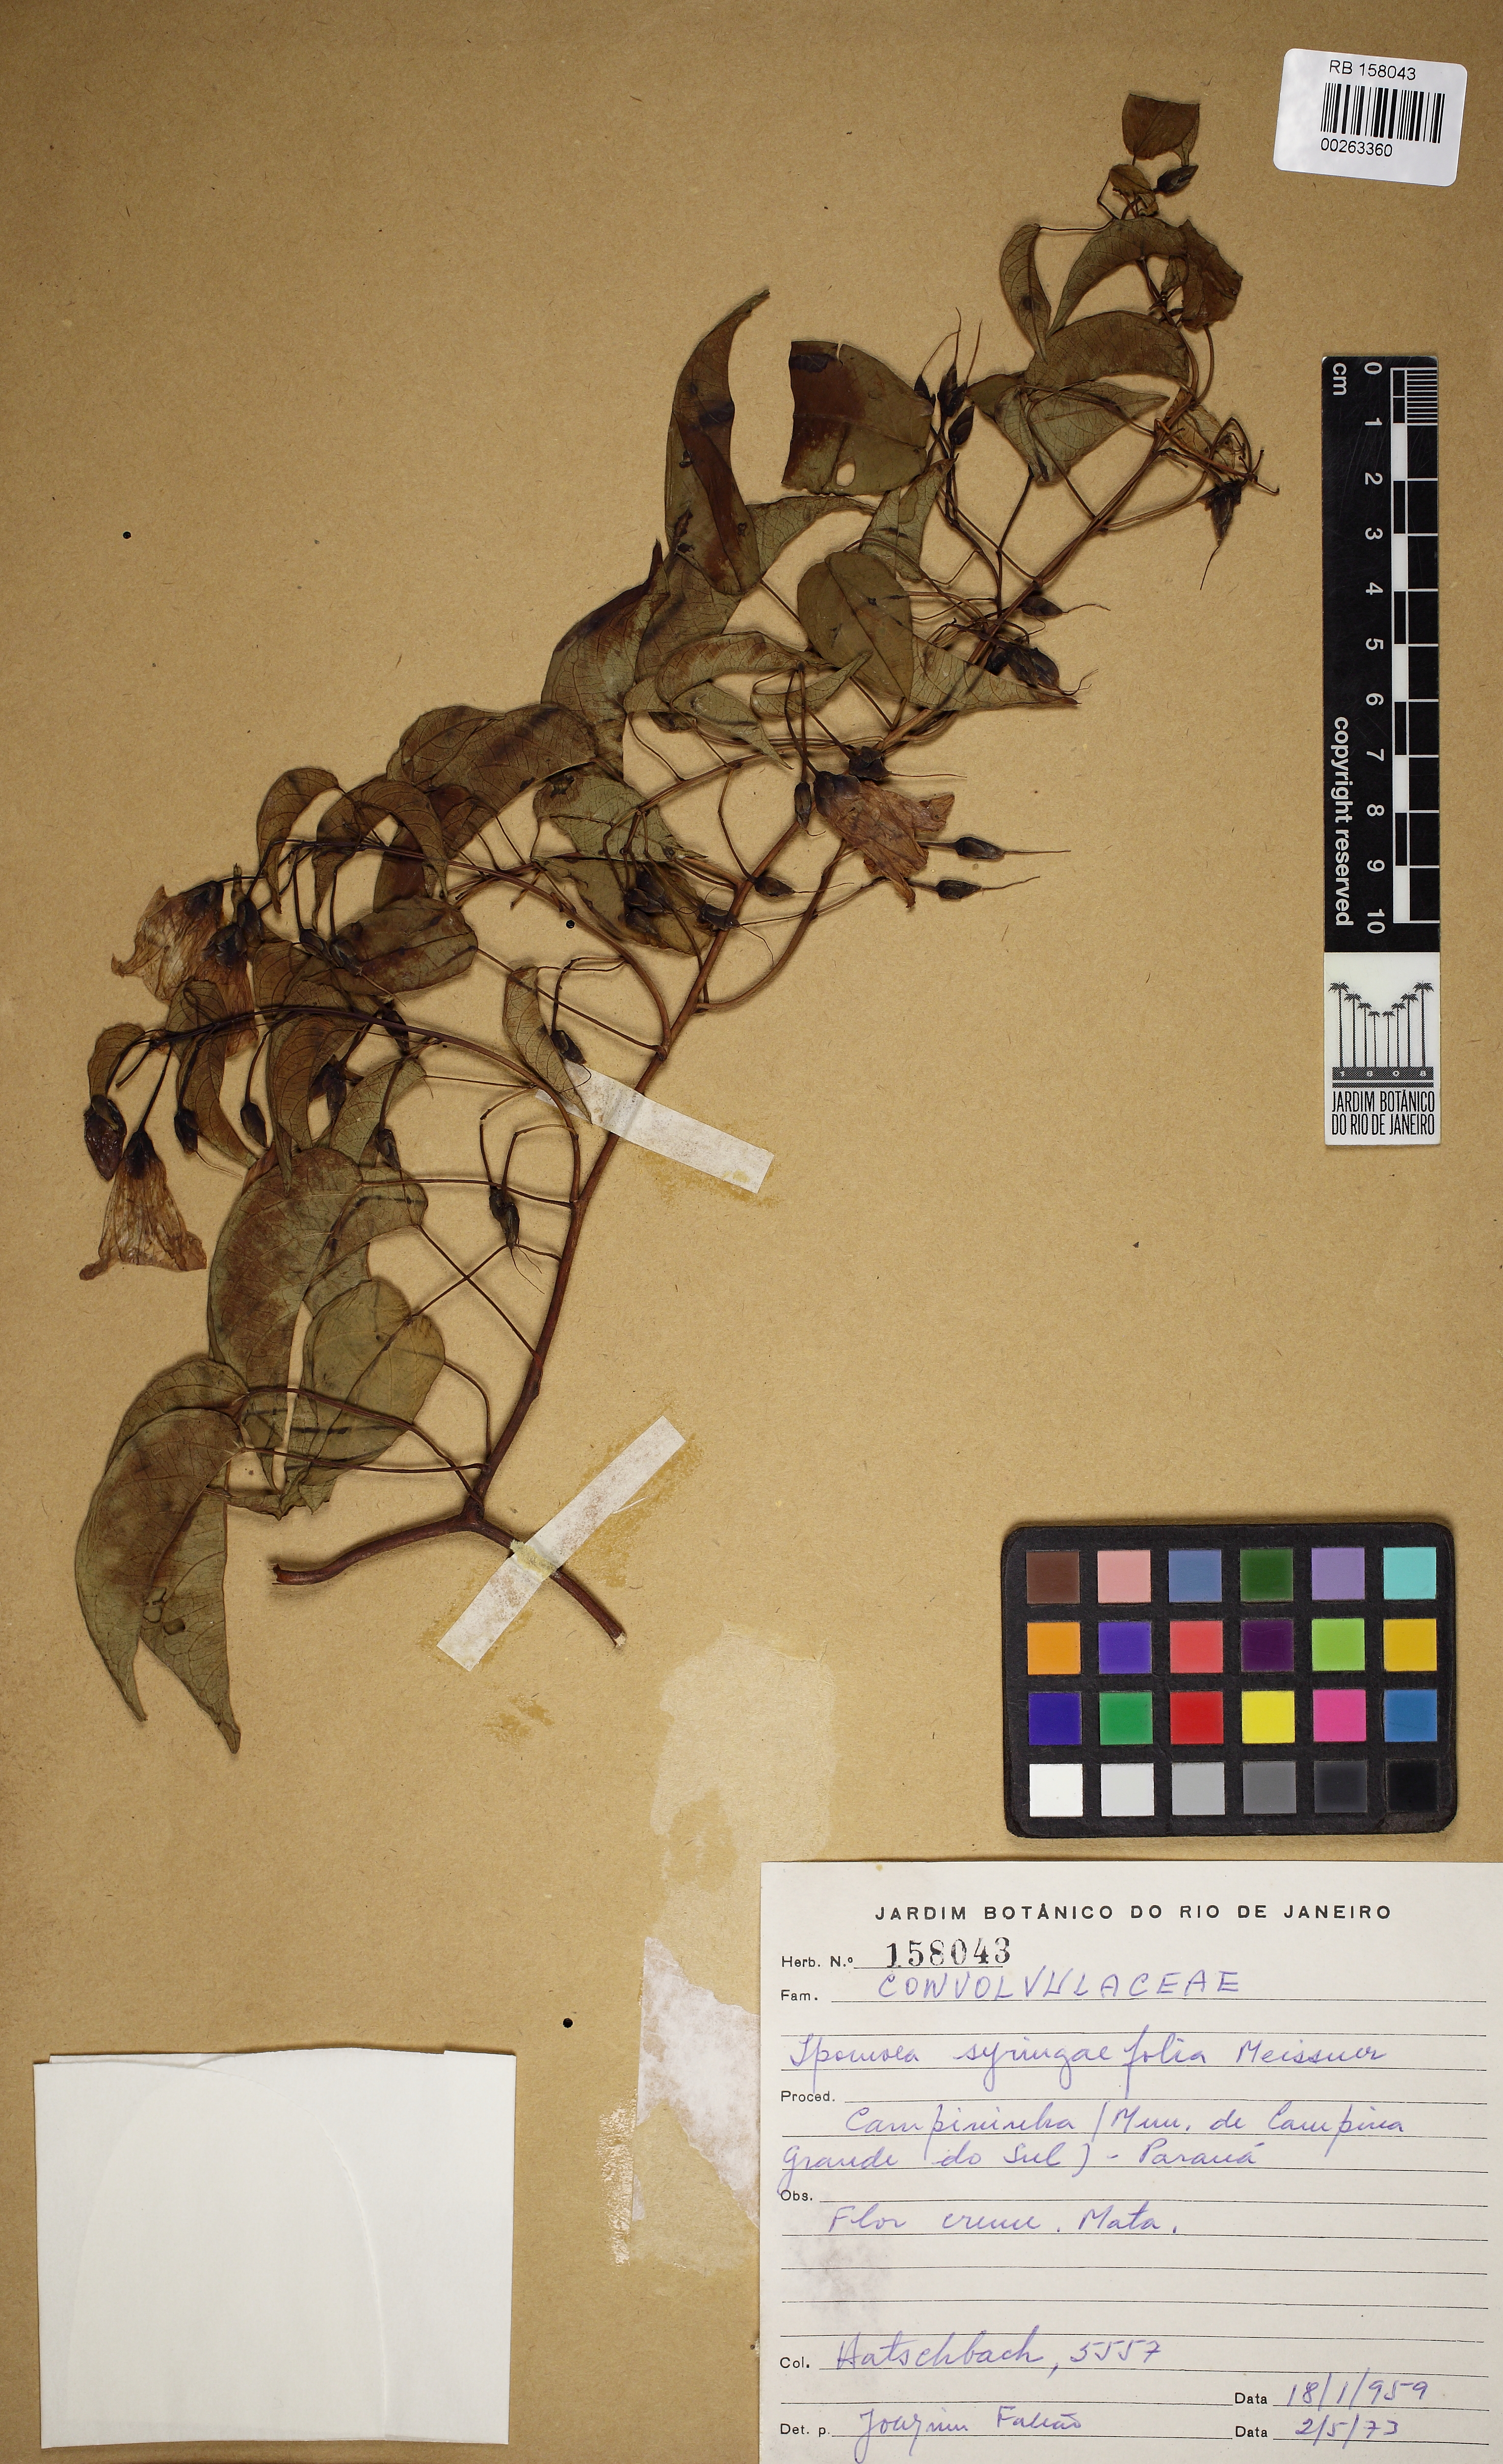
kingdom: Plantae
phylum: Tracheophyta
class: Magnoliopsida
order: Solanales
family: Convolvulaceae
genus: Ipomoea
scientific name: Ipomoea syringifolia
